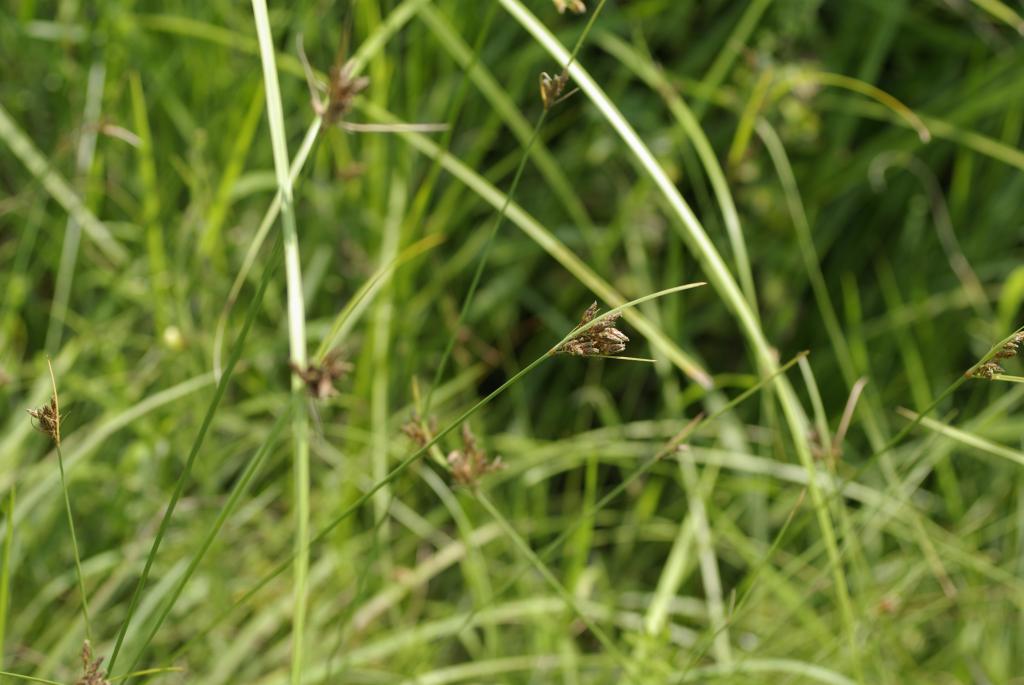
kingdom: Plantae
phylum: Tracheophyta
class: Liliopsida
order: Poales
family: Cyperaceae
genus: Fimbristylis
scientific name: Fimbristylis dichotoma
